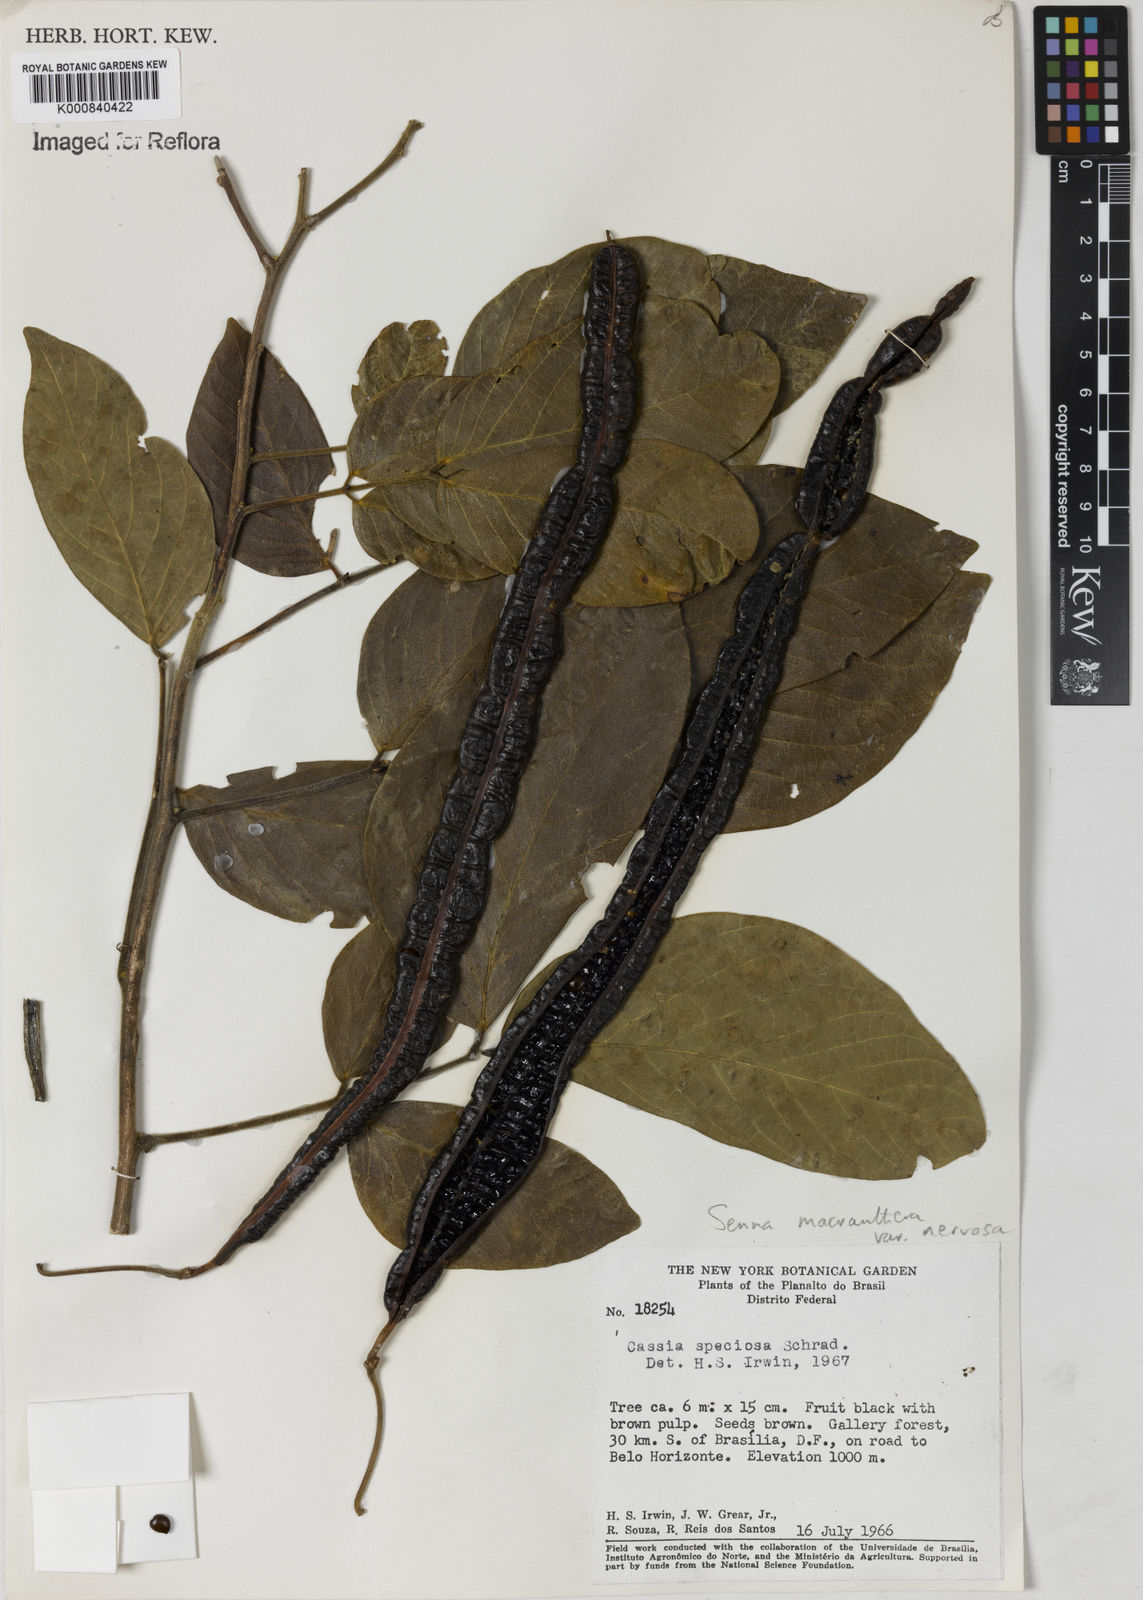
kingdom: Plantae
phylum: Tracheophyta
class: Magnoliopsida
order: Fabales
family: Fabaceae
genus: Senna
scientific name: Senna macranthera
